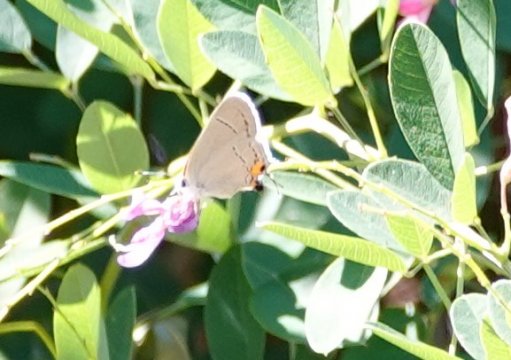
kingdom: Animalia
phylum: Arthropoda
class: Insecta
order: Lepidoptera
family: Lycaenidae
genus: Strymon
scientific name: Strymon melinus
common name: Gray Hairstreak
